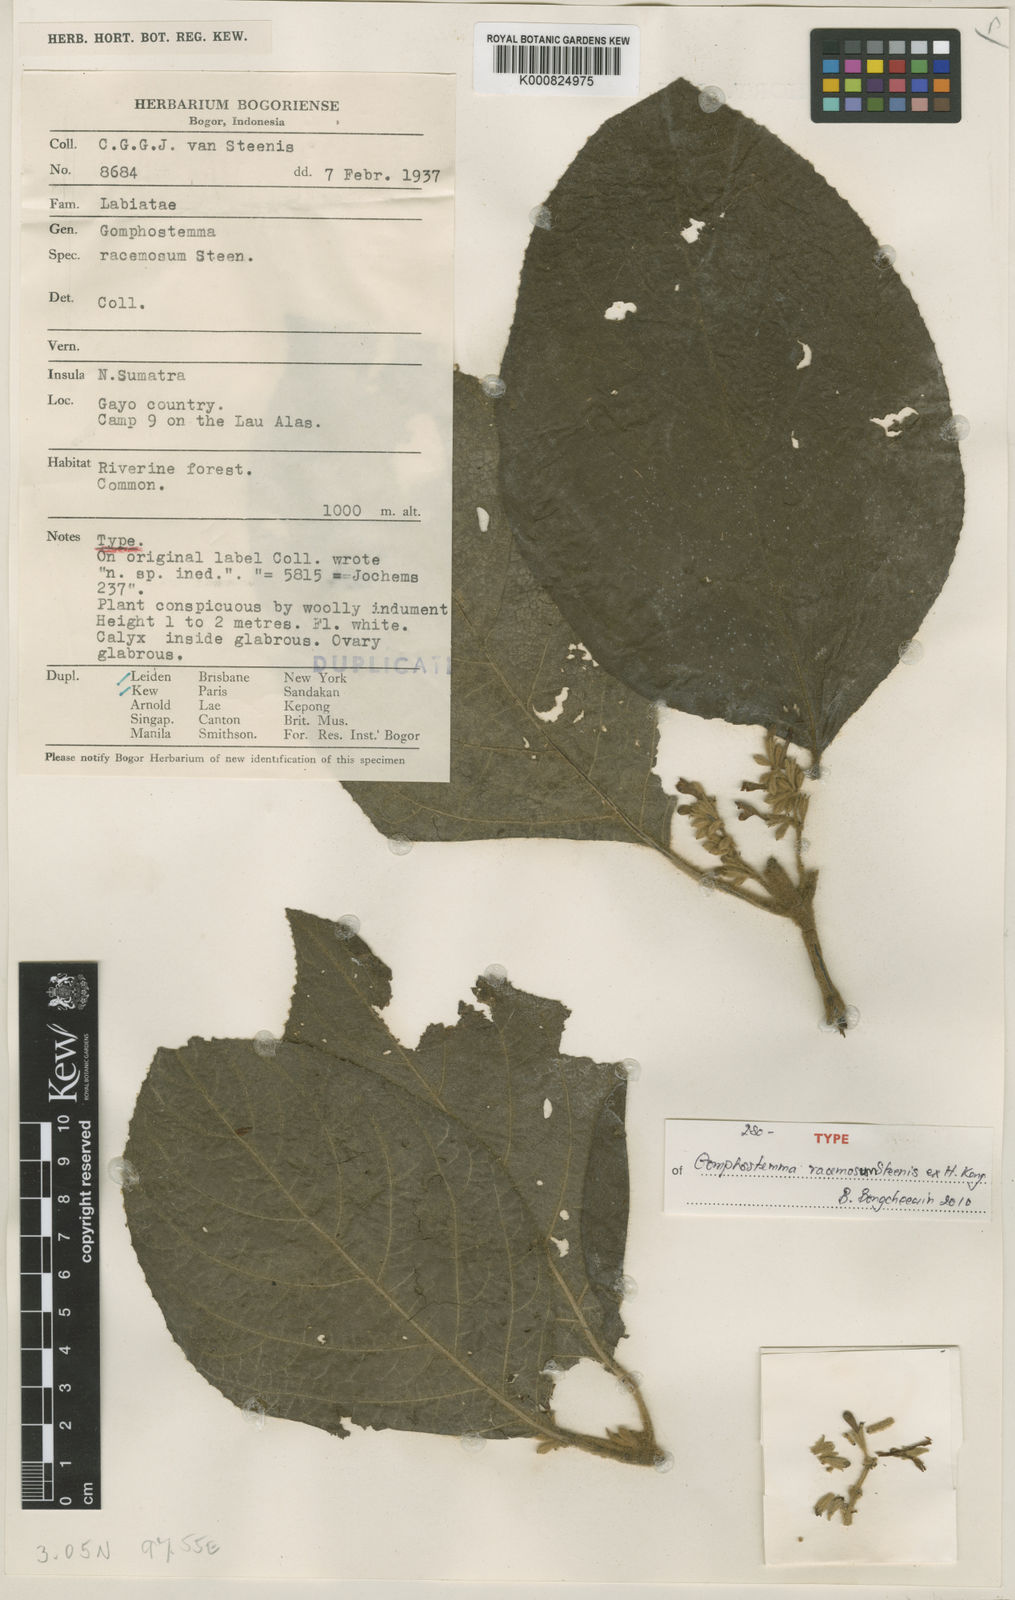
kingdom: Plantae
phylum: Tracheophyta
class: Magnoliopsida
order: Lamiales
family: Lamiaceae
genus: Gomphostemma
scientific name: Gomphostemma dolichobotrys
